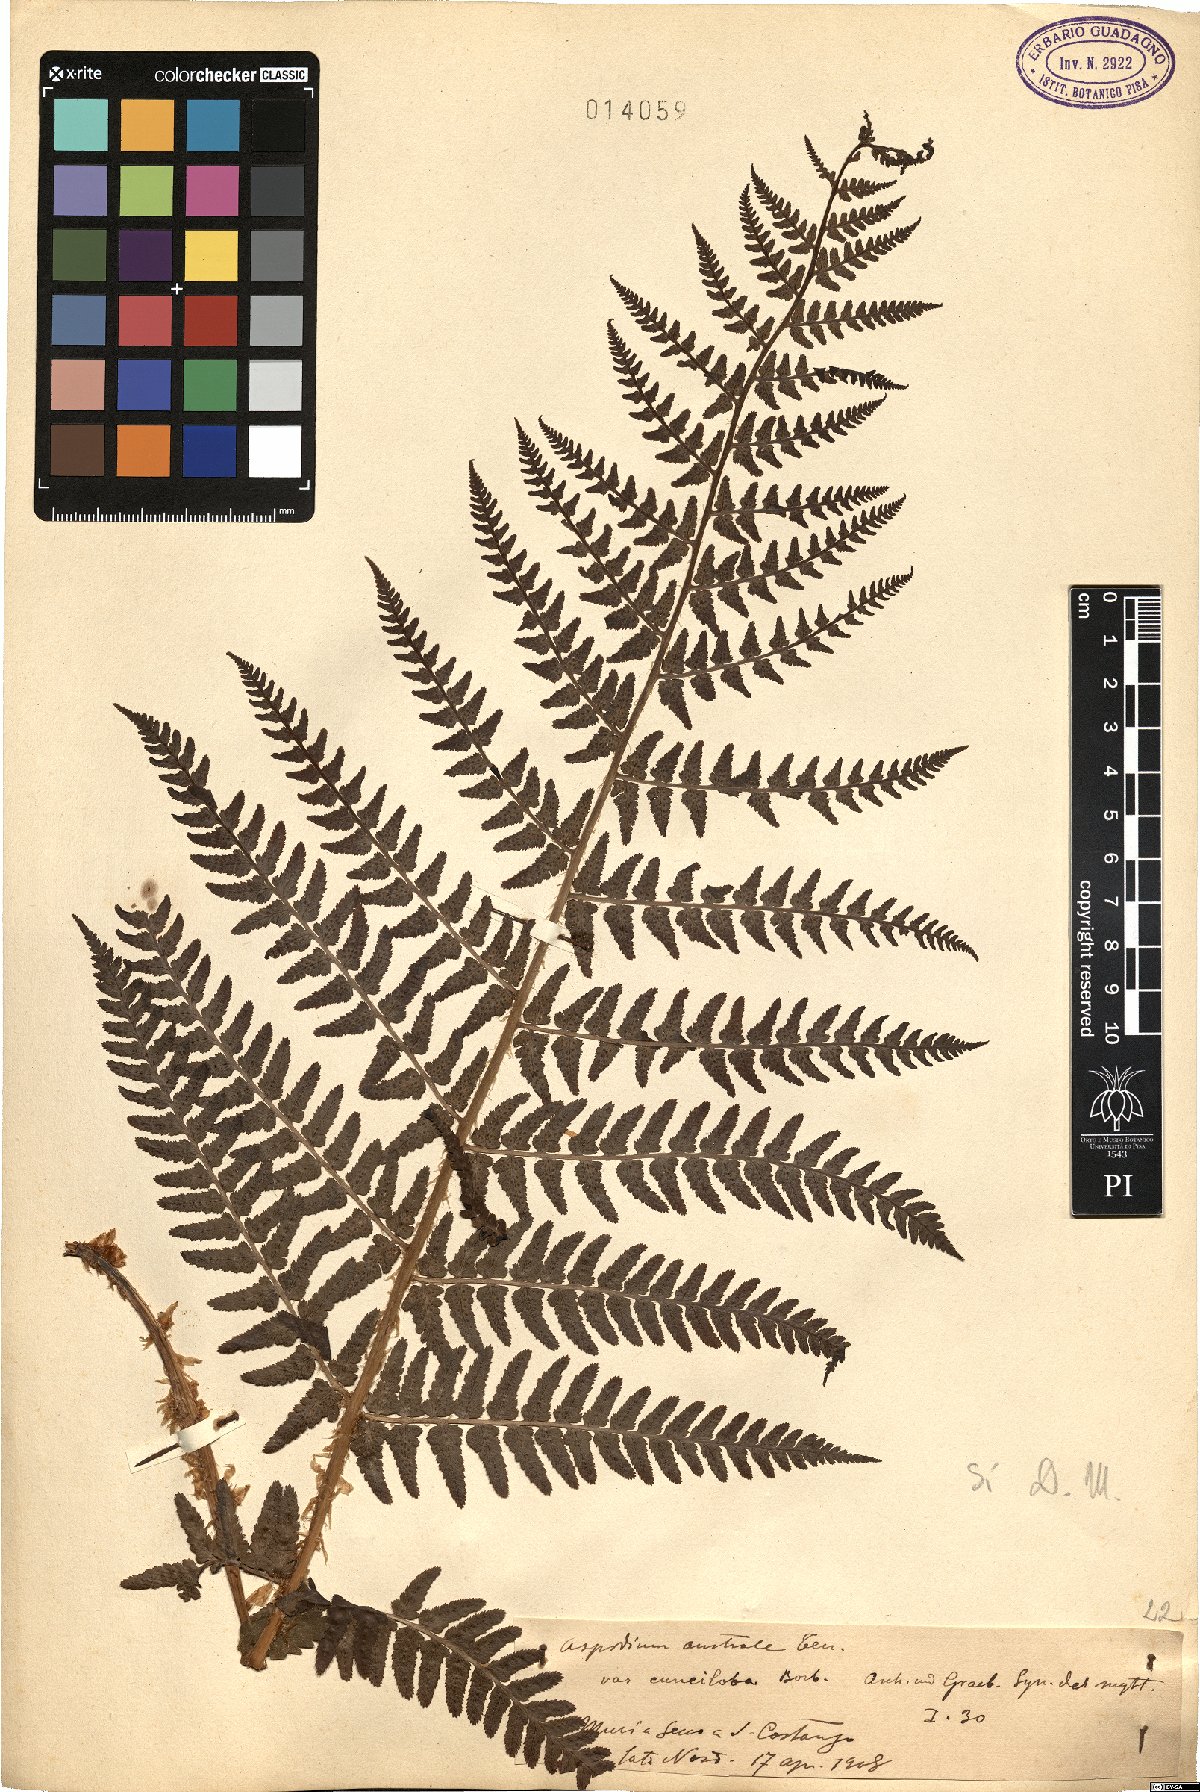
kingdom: Plantae
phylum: Tracheophyta
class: Polypodiopsida
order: Polypodiales
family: Dryopteridaceae
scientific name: Dryopteridaceae
